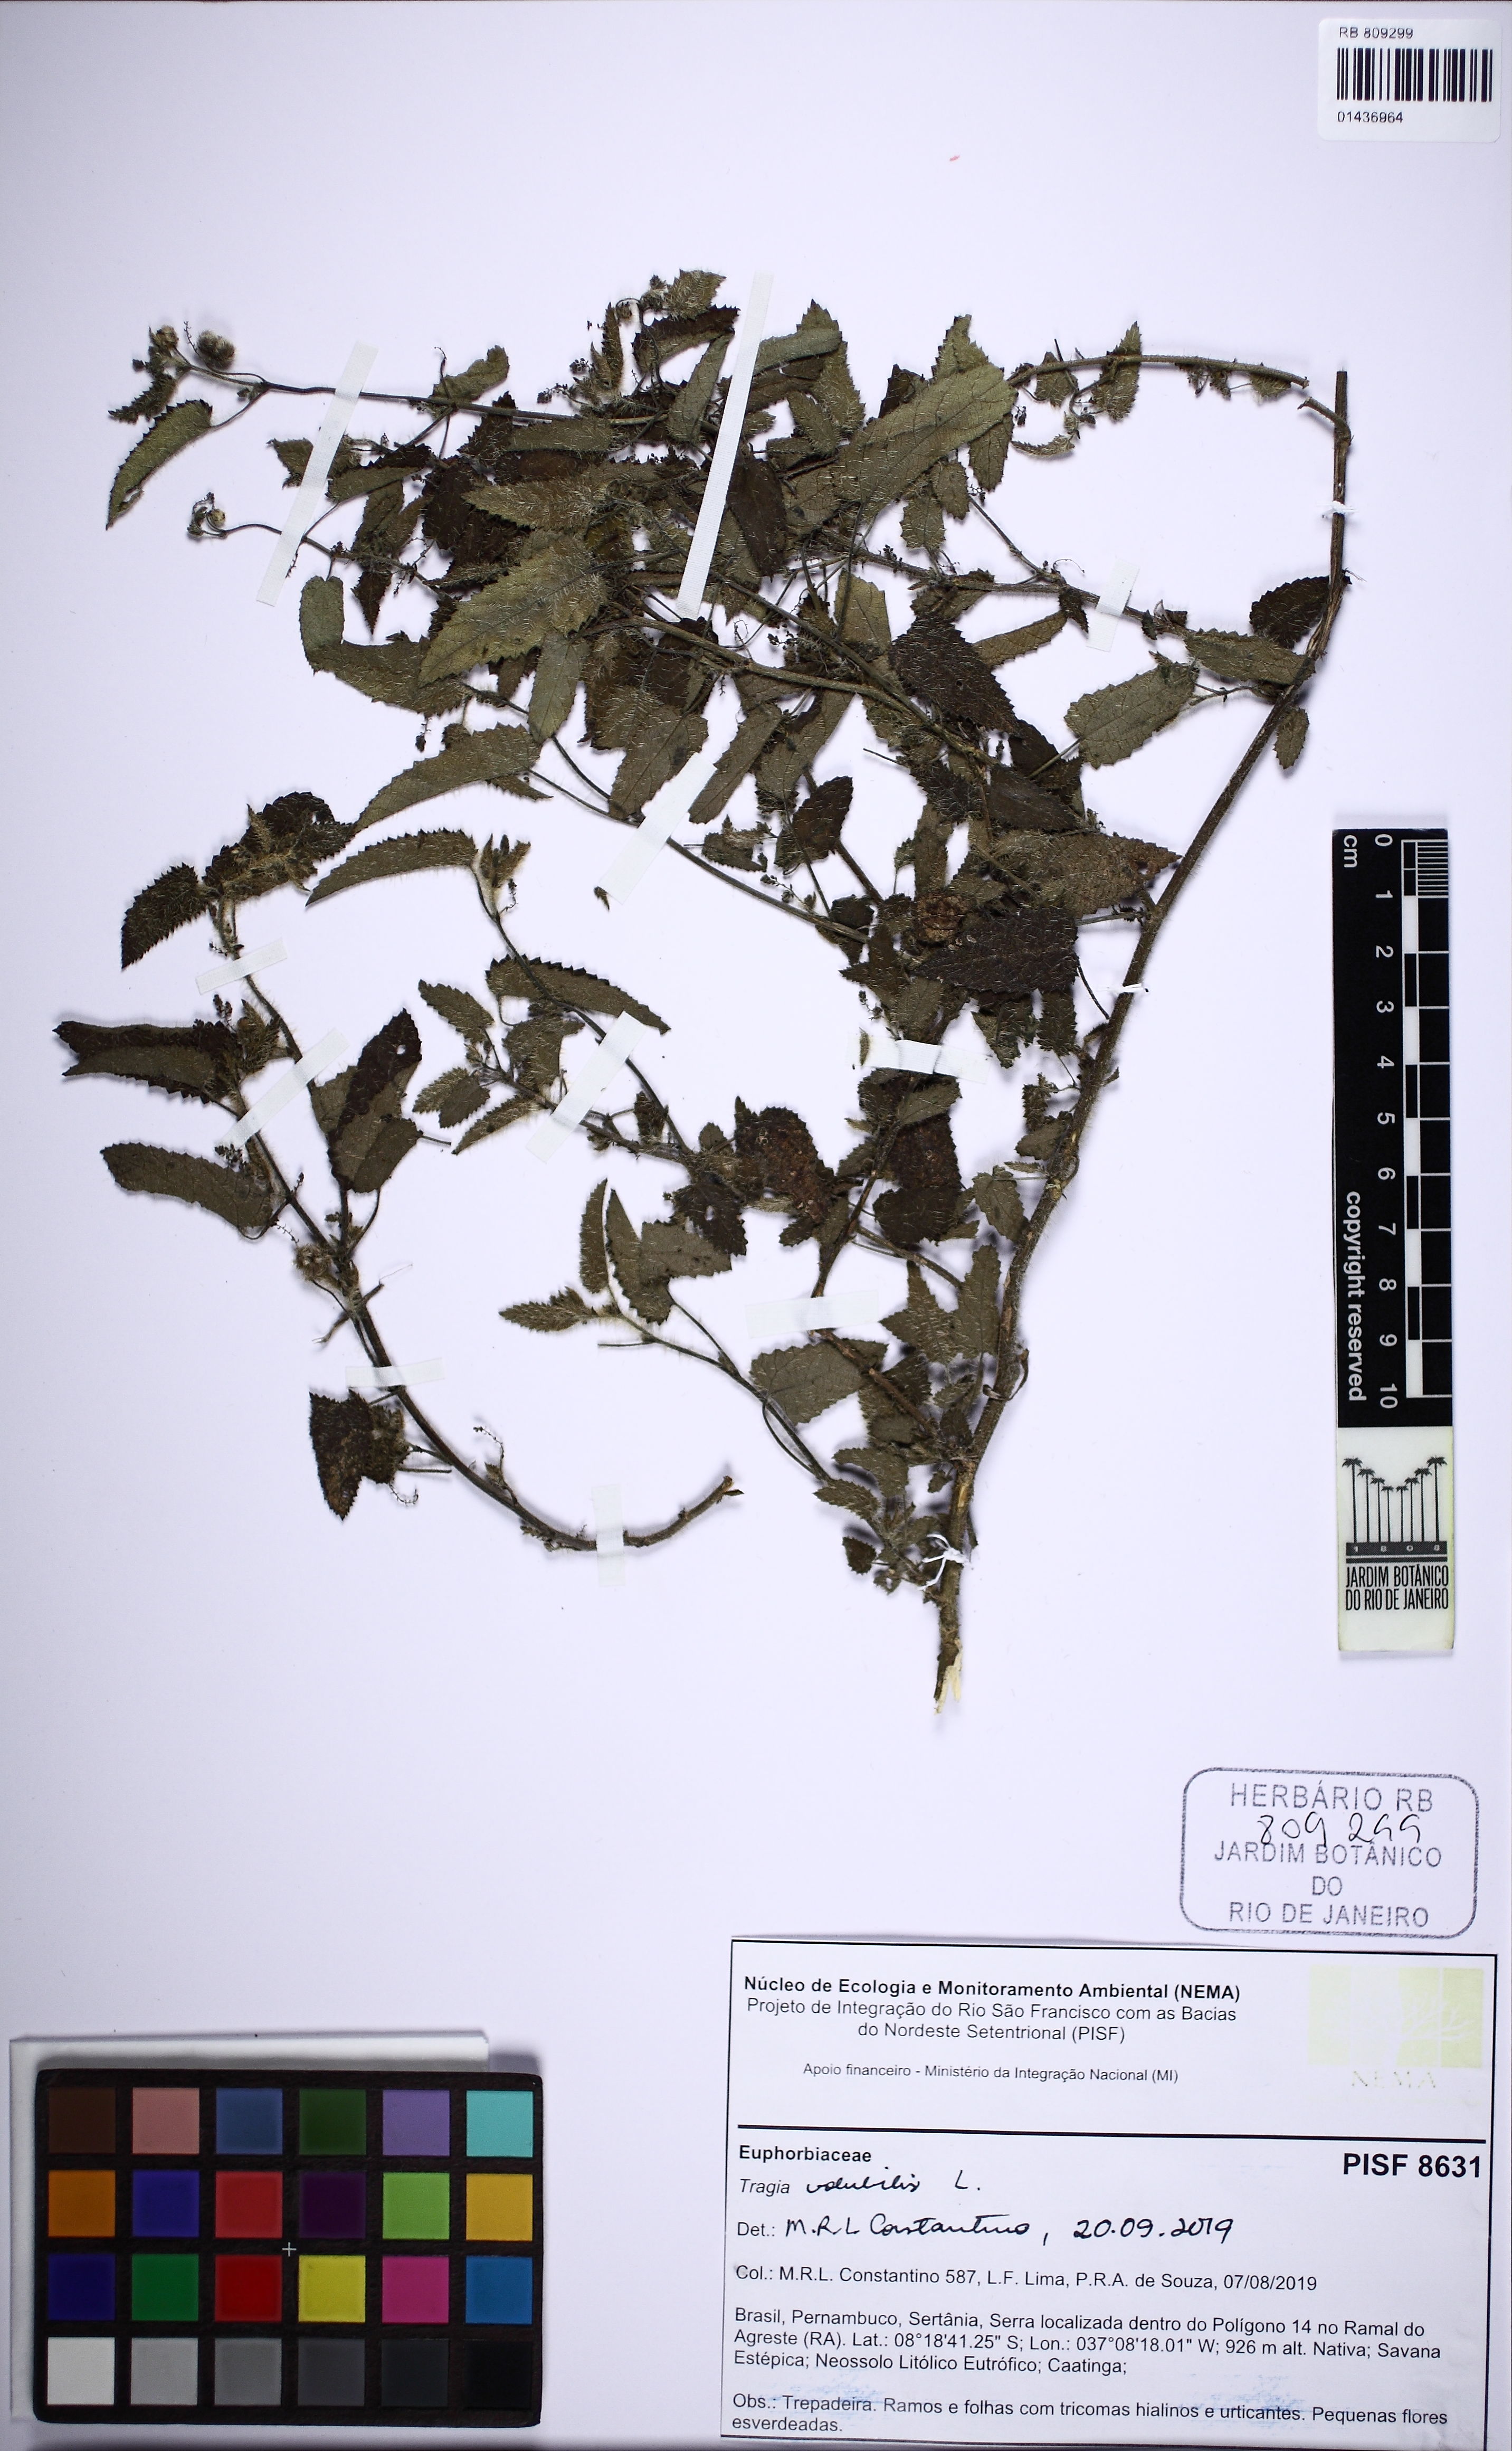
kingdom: Plantae
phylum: Tracheophyta
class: Magnoliopsida
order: Malpighiales
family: Euphorbiaceae
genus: Tragia
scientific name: Tragia volubilis
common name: Twining cow-itch
